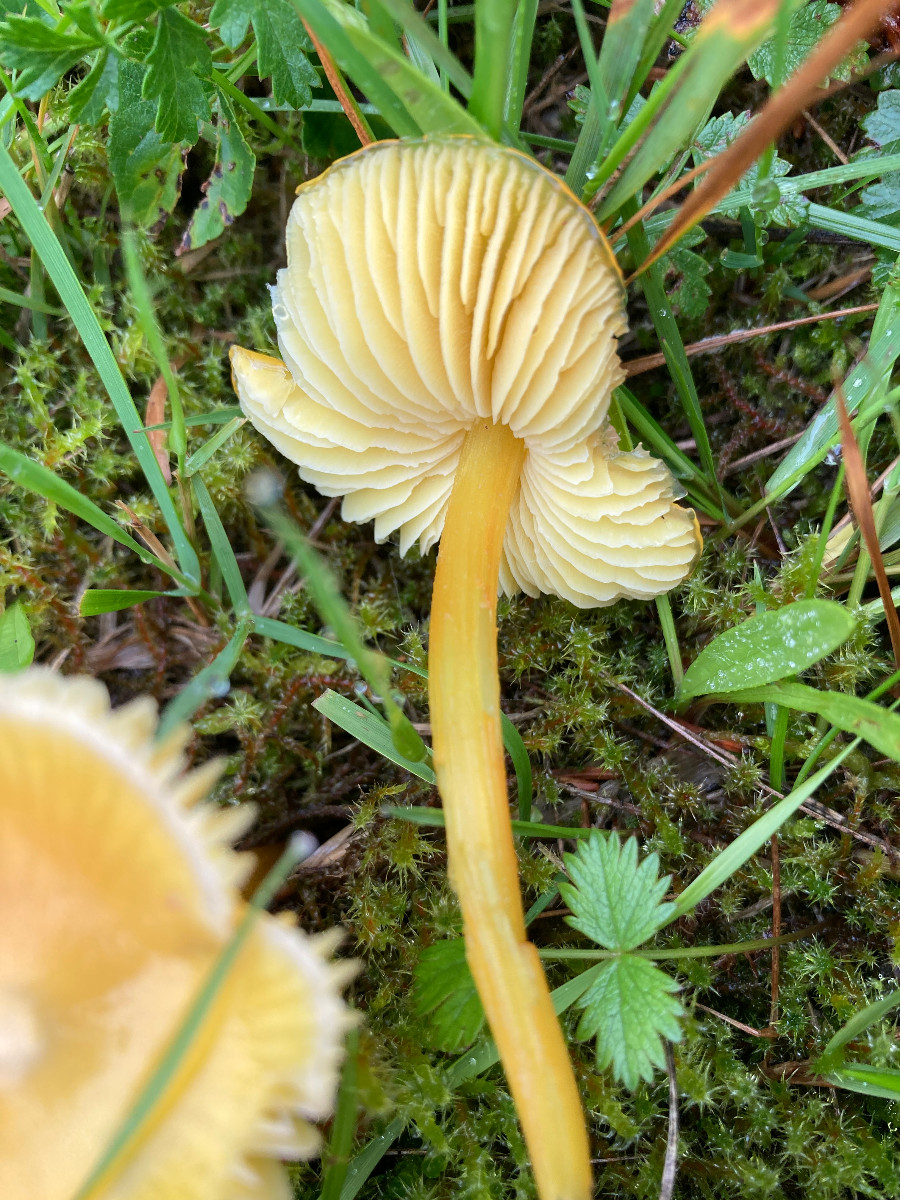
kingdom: Fungi
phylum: Basidiomycota
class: Agaricomycetes
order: Agaricales
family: Hygrophoraceae
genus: Hygrocybe
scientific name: Hygrocybe
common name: vokshat
